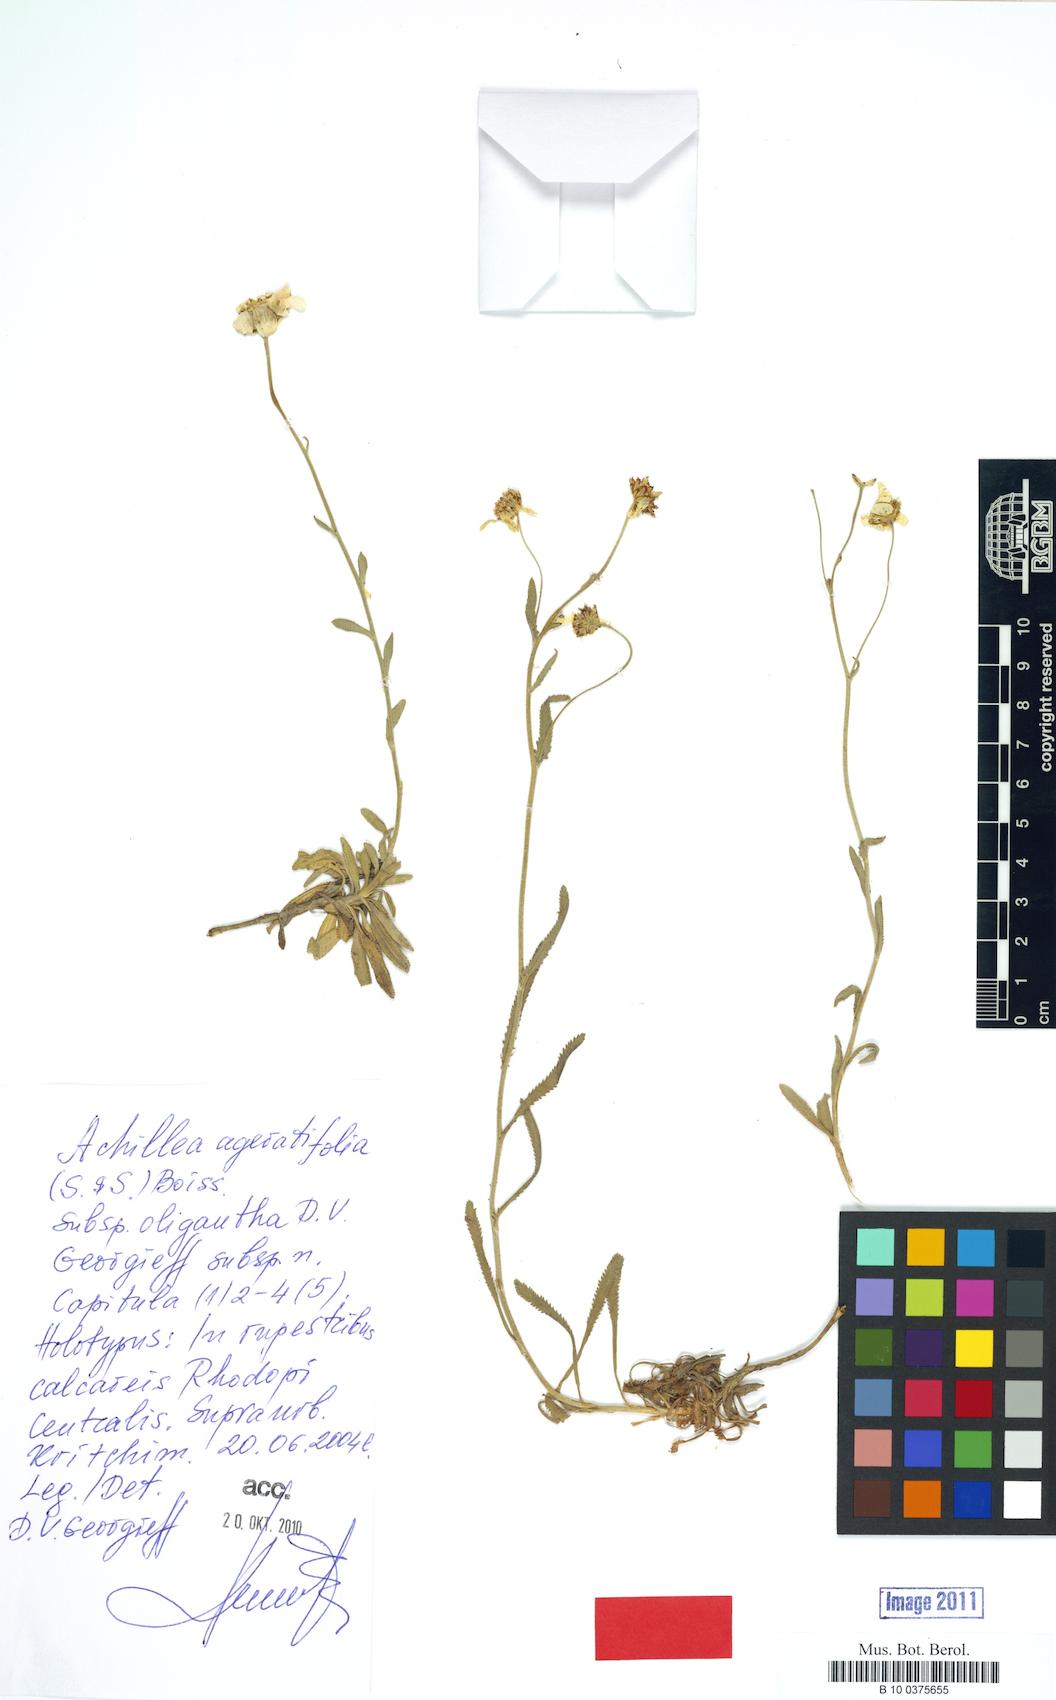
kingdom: Plantae
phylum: Tracheophyta
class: Magnoliopsida
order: Asterales
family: Asteraceae
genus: Achillea
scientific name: Achillea ageratifolia
